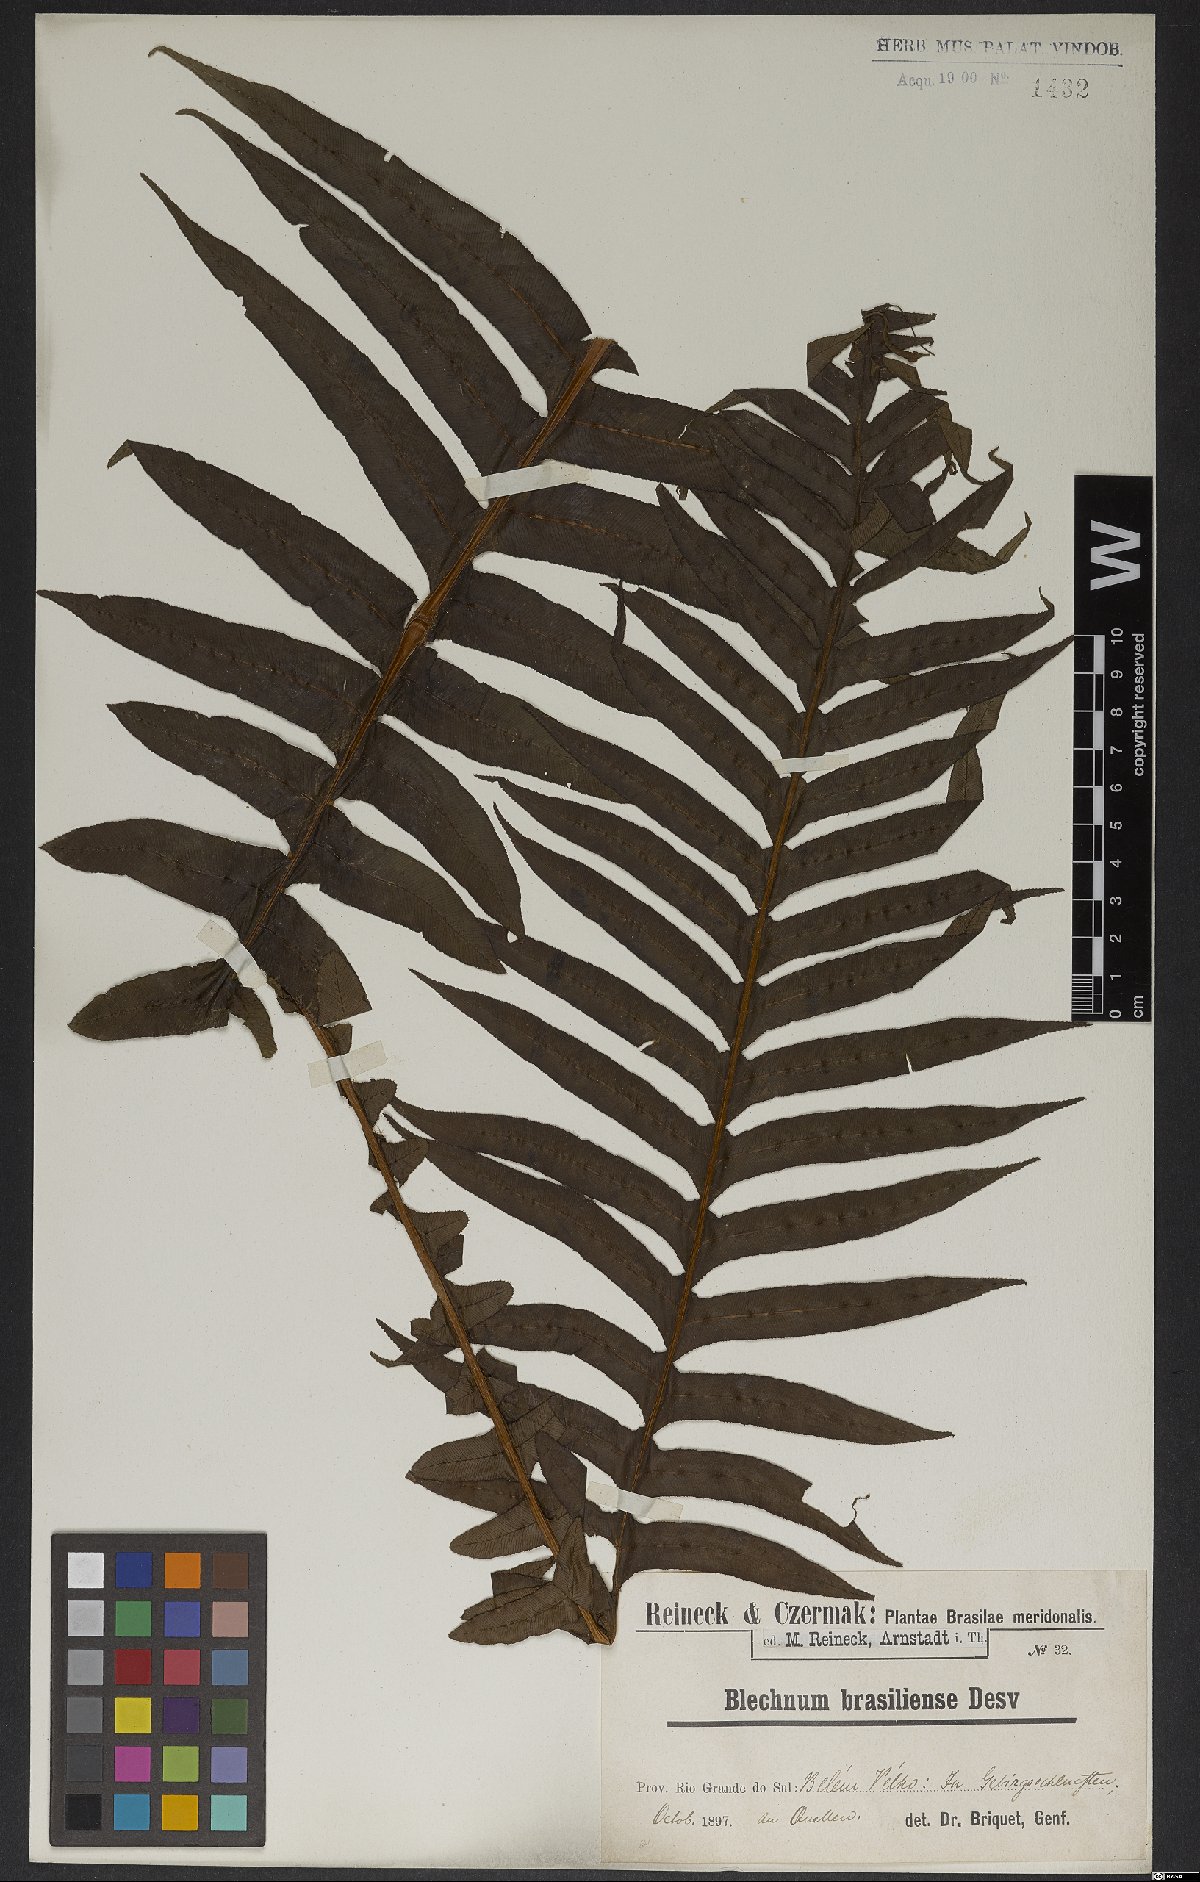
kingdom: Plantae
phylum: Tracheophyta
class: Polypodiopsida
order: Polypodiales
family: Blechnaceae
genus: Neoblechnum
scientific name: Neoblechnum brasiliense
